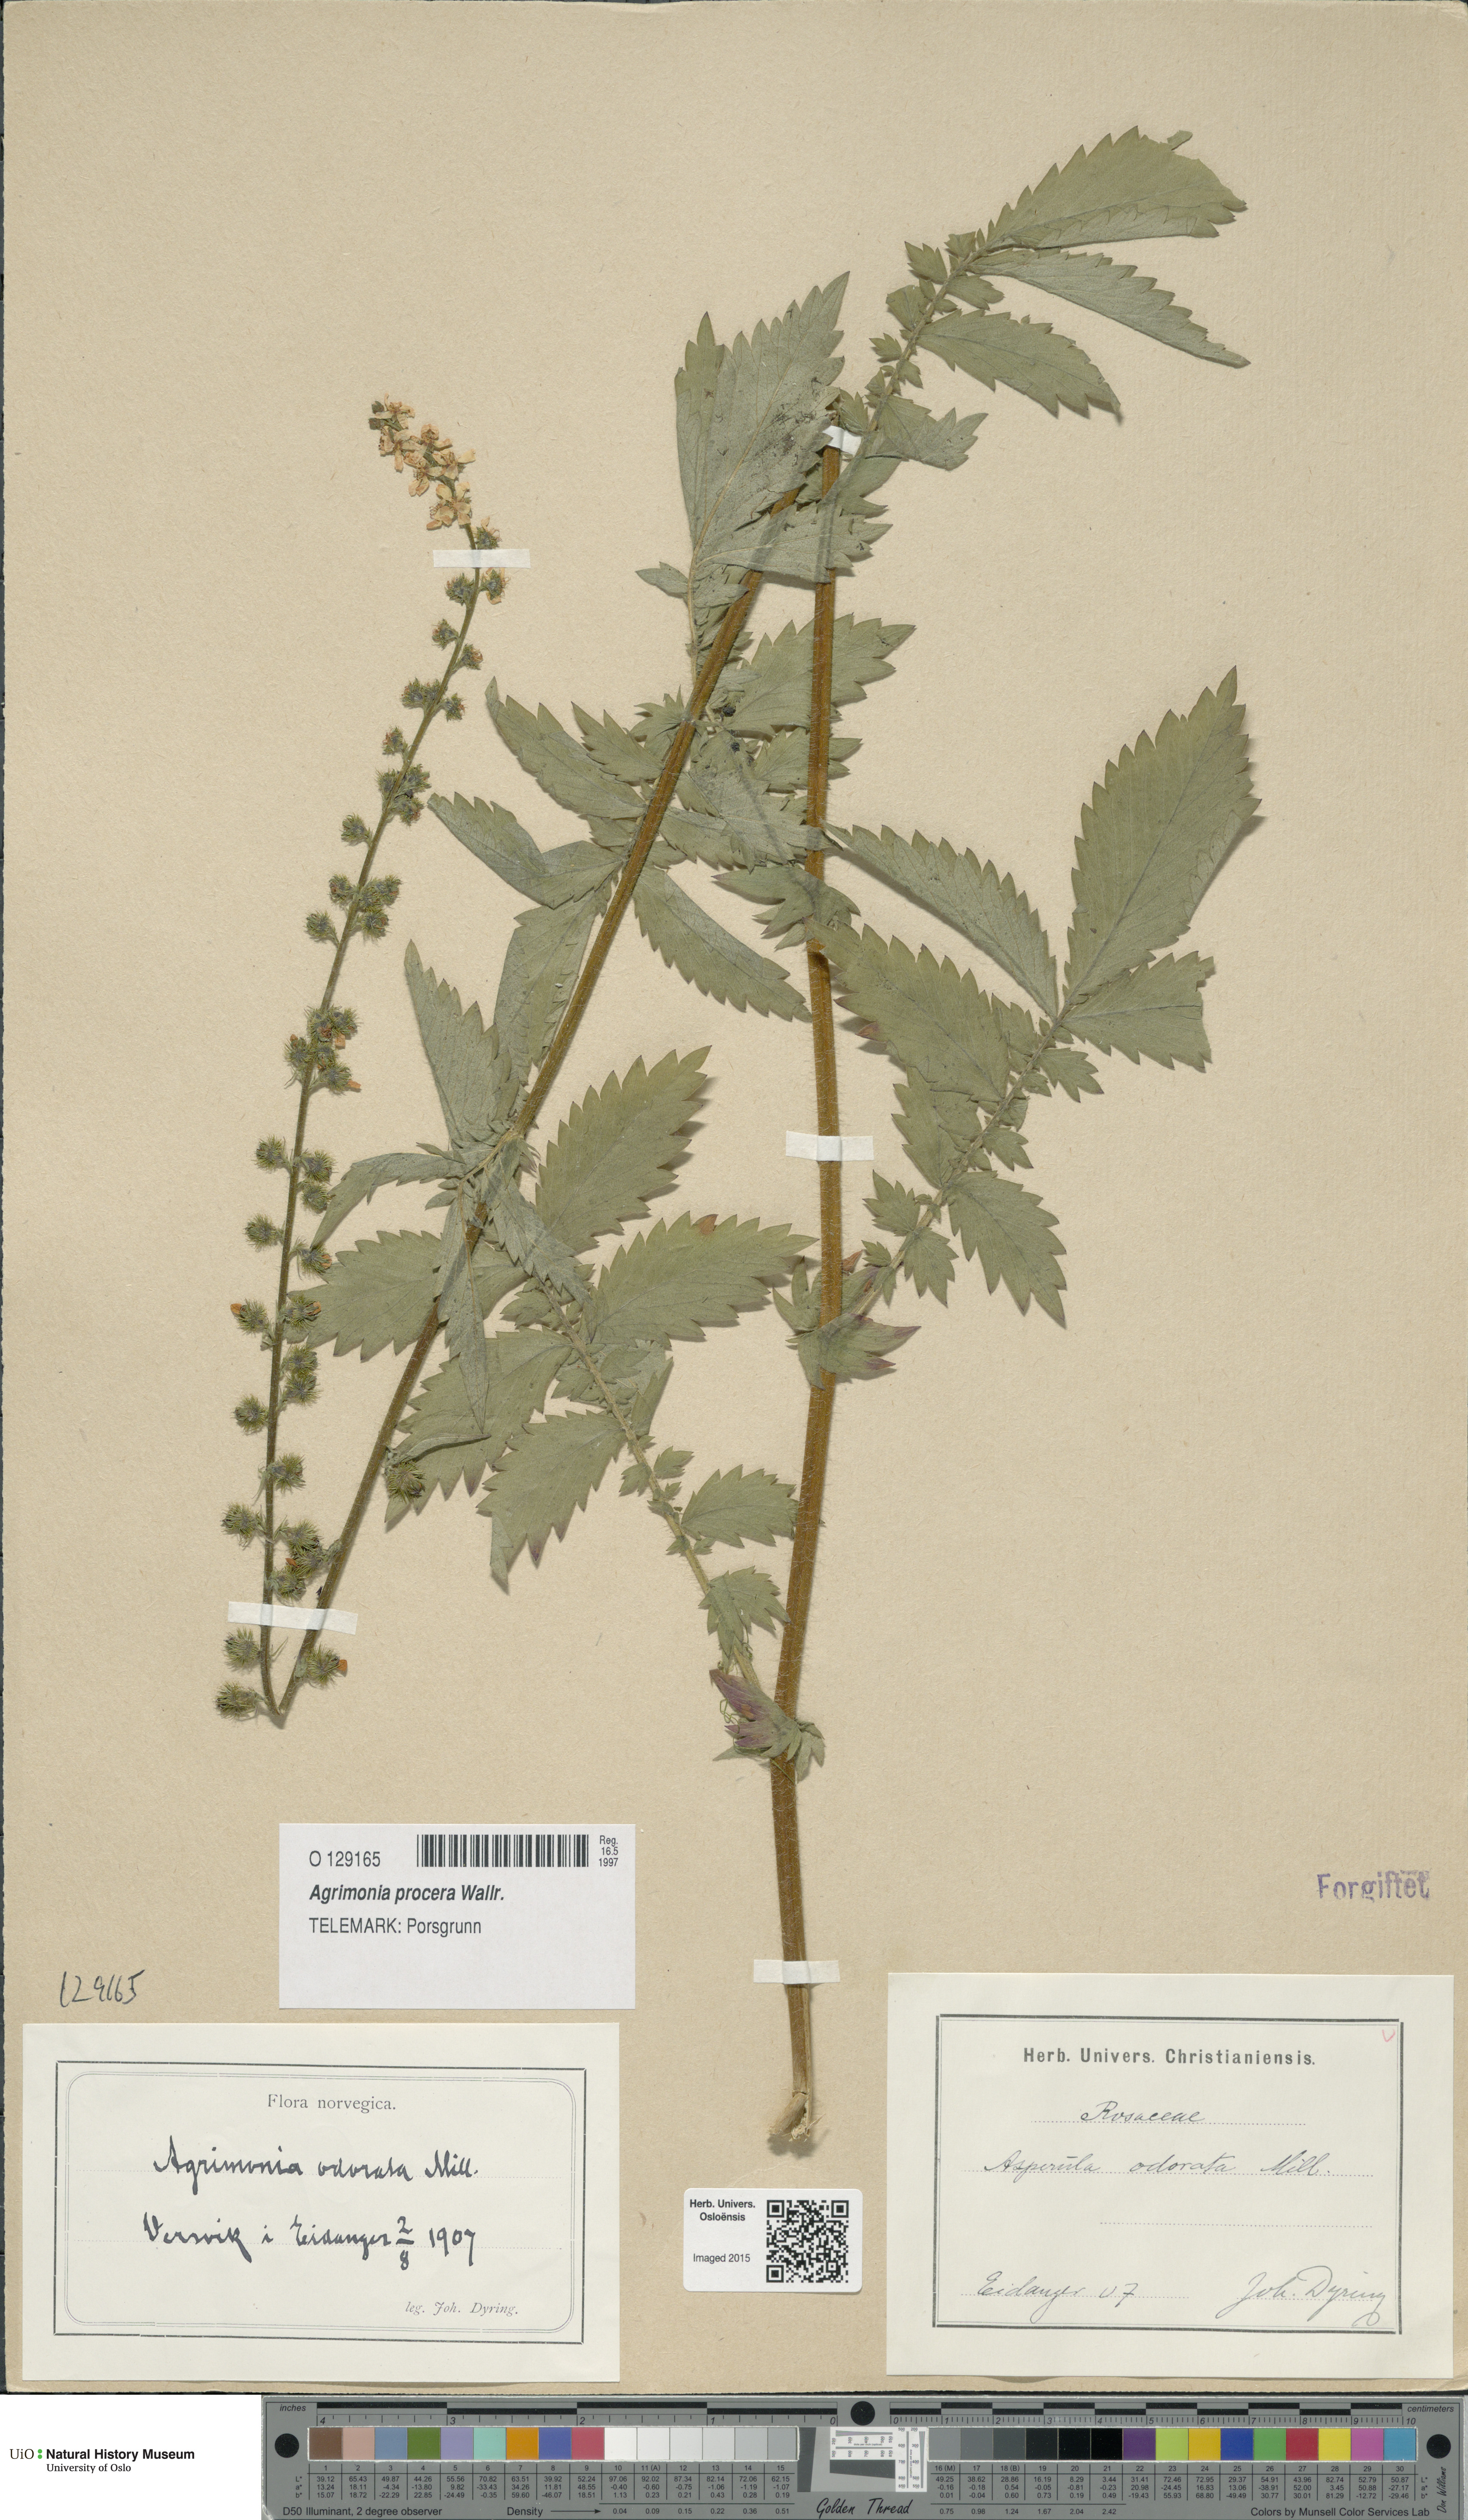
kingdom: Plantae
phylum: Tracheophyta
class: Magnoliopsida
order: Rosales
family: Rosaceae
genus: Agrimonia
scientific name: Agrimonia procera
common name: Fragrant agrimony
